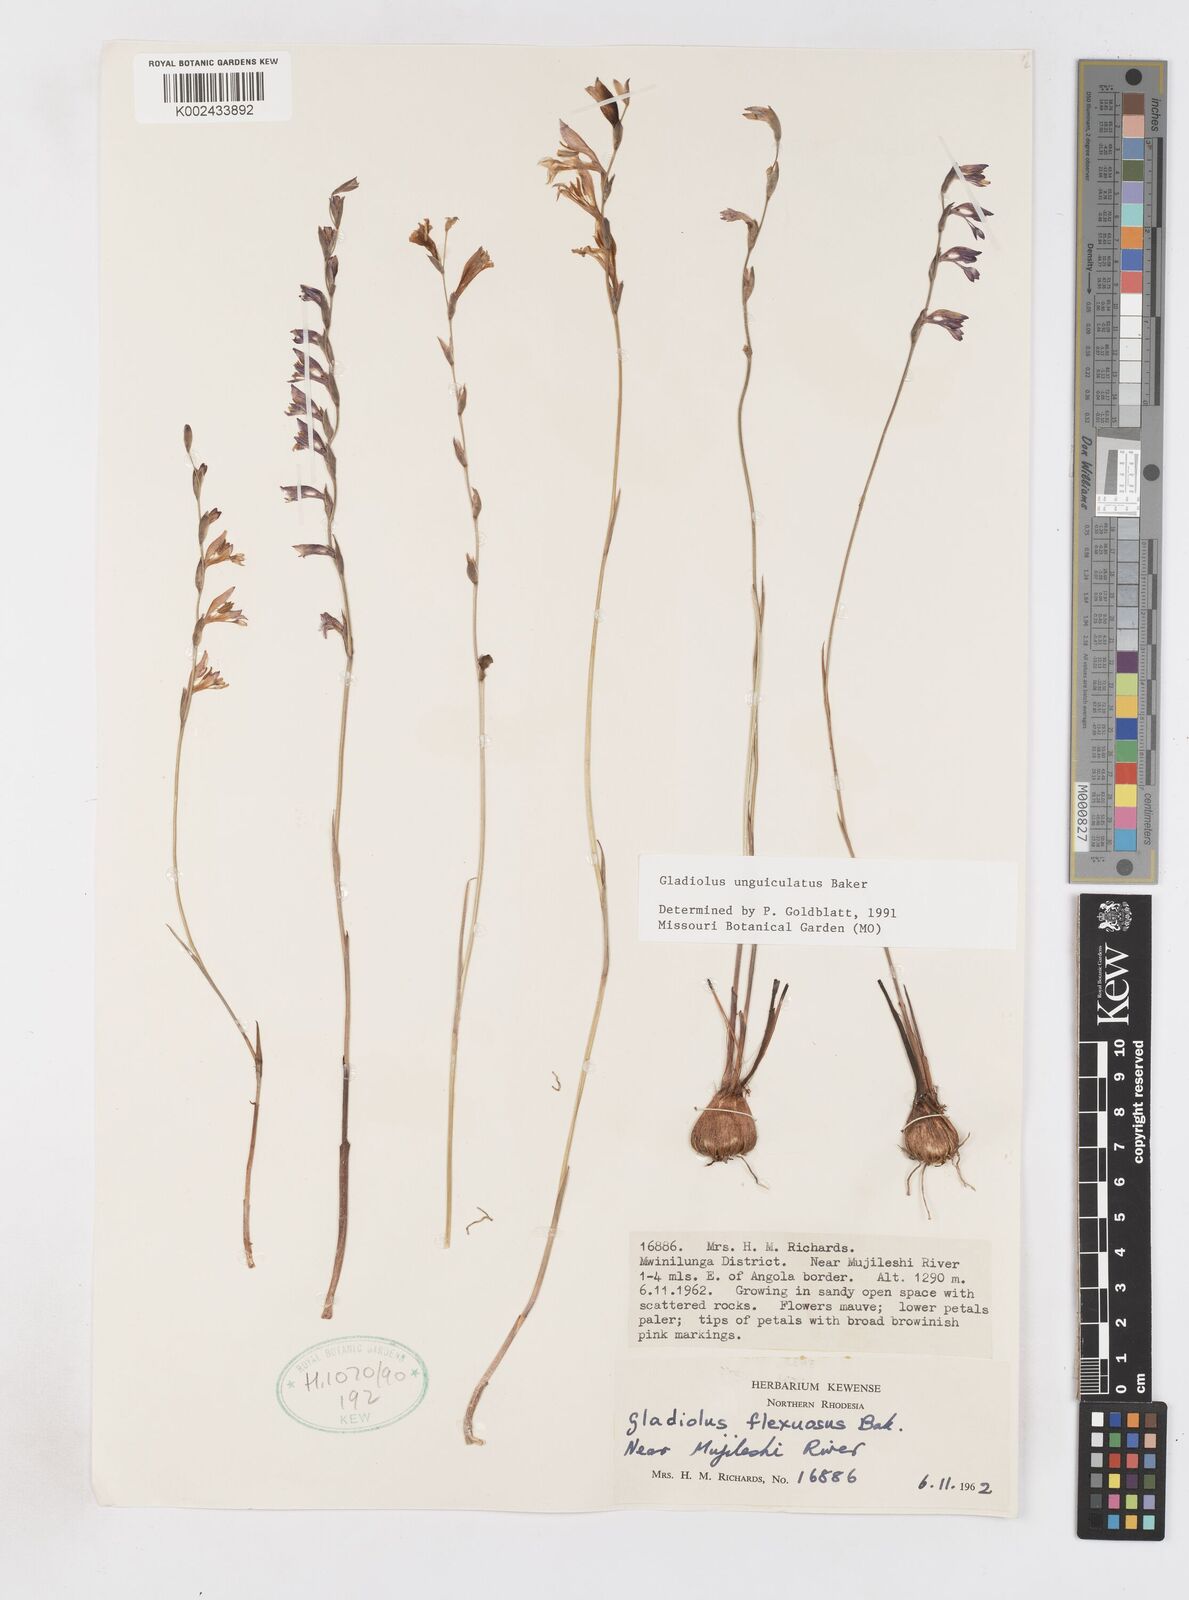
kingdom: Plantae
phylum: Tracheophyta
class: Liliopsida
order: Asparagales
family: Iridaceae
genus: Gladiolus
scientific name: Gladiolus unguiculatus
